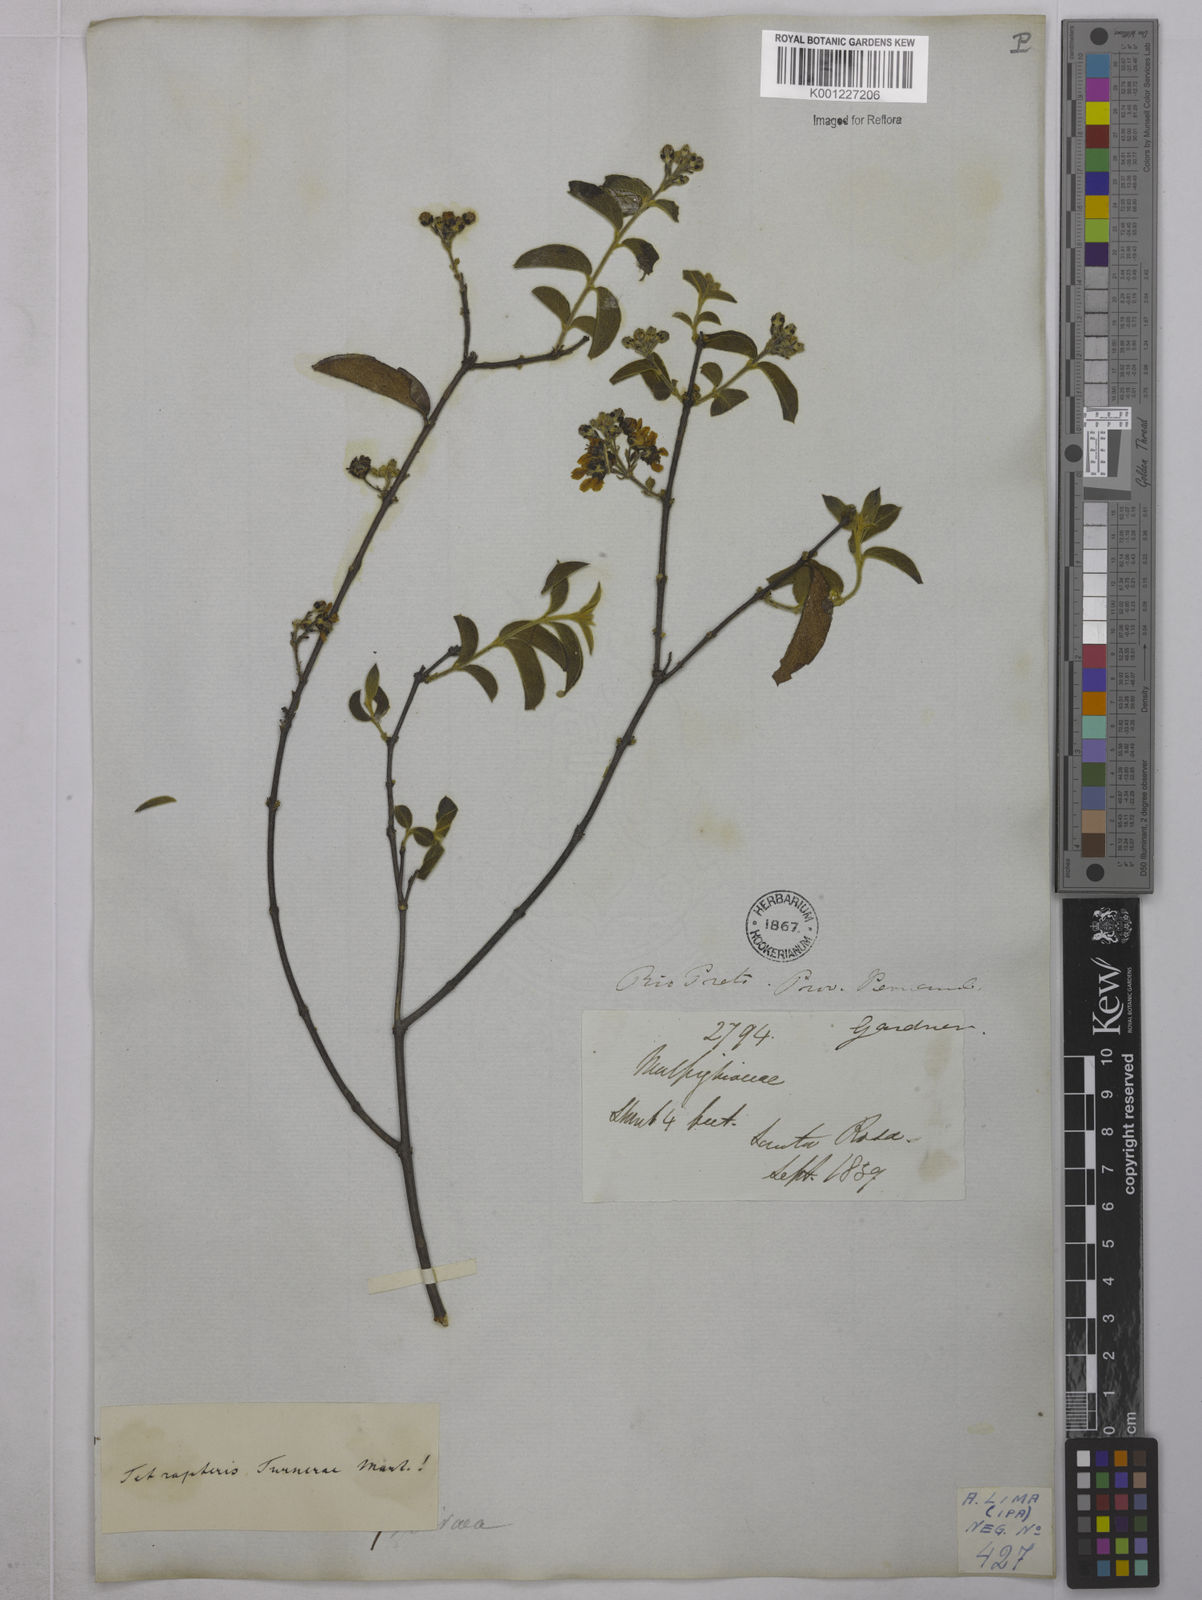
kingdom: Plantae
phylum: Tracheophyta
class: Magnoliopsida
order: Malpighiales
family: Malpighiaceae
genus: Glicophyllum
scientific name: Glicophyllum turnerae
